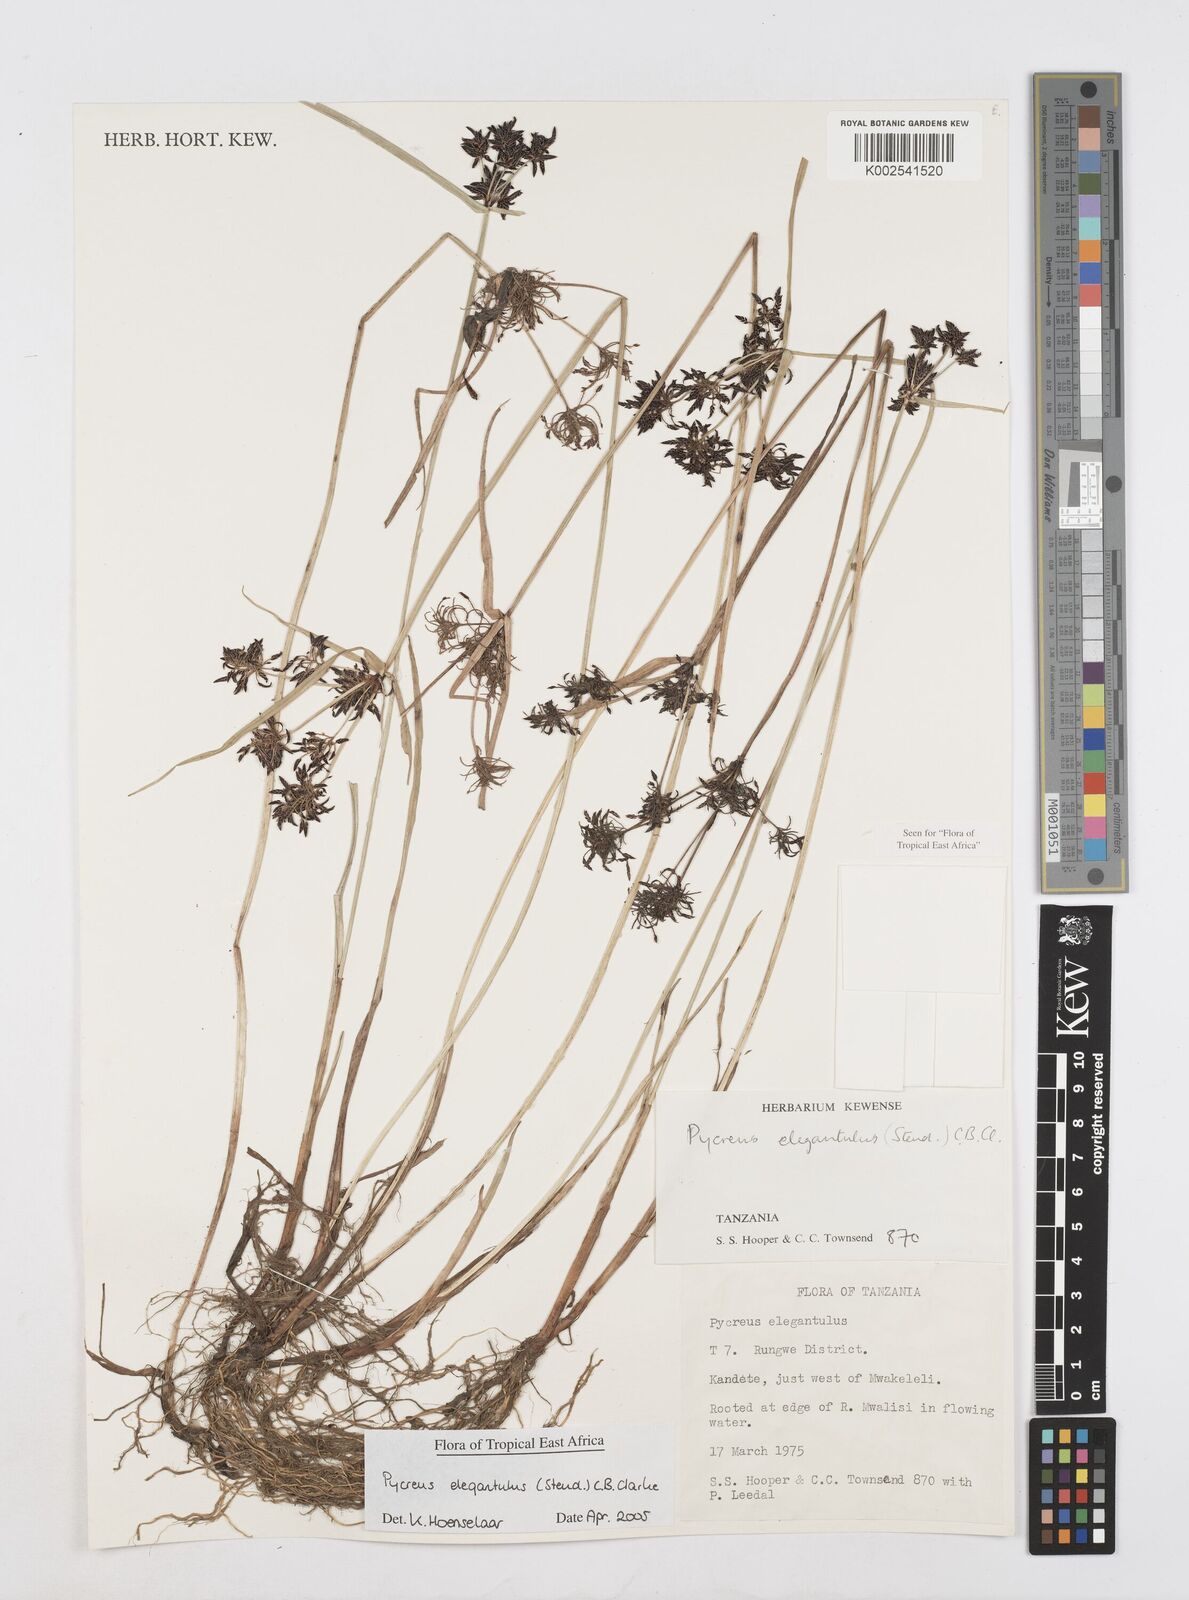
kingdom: Plantae
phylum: Tracheophyta
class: Liliopsida
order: Poales
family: Cyperaceae
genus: Cyperus
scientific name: Cyperus elegantulus
